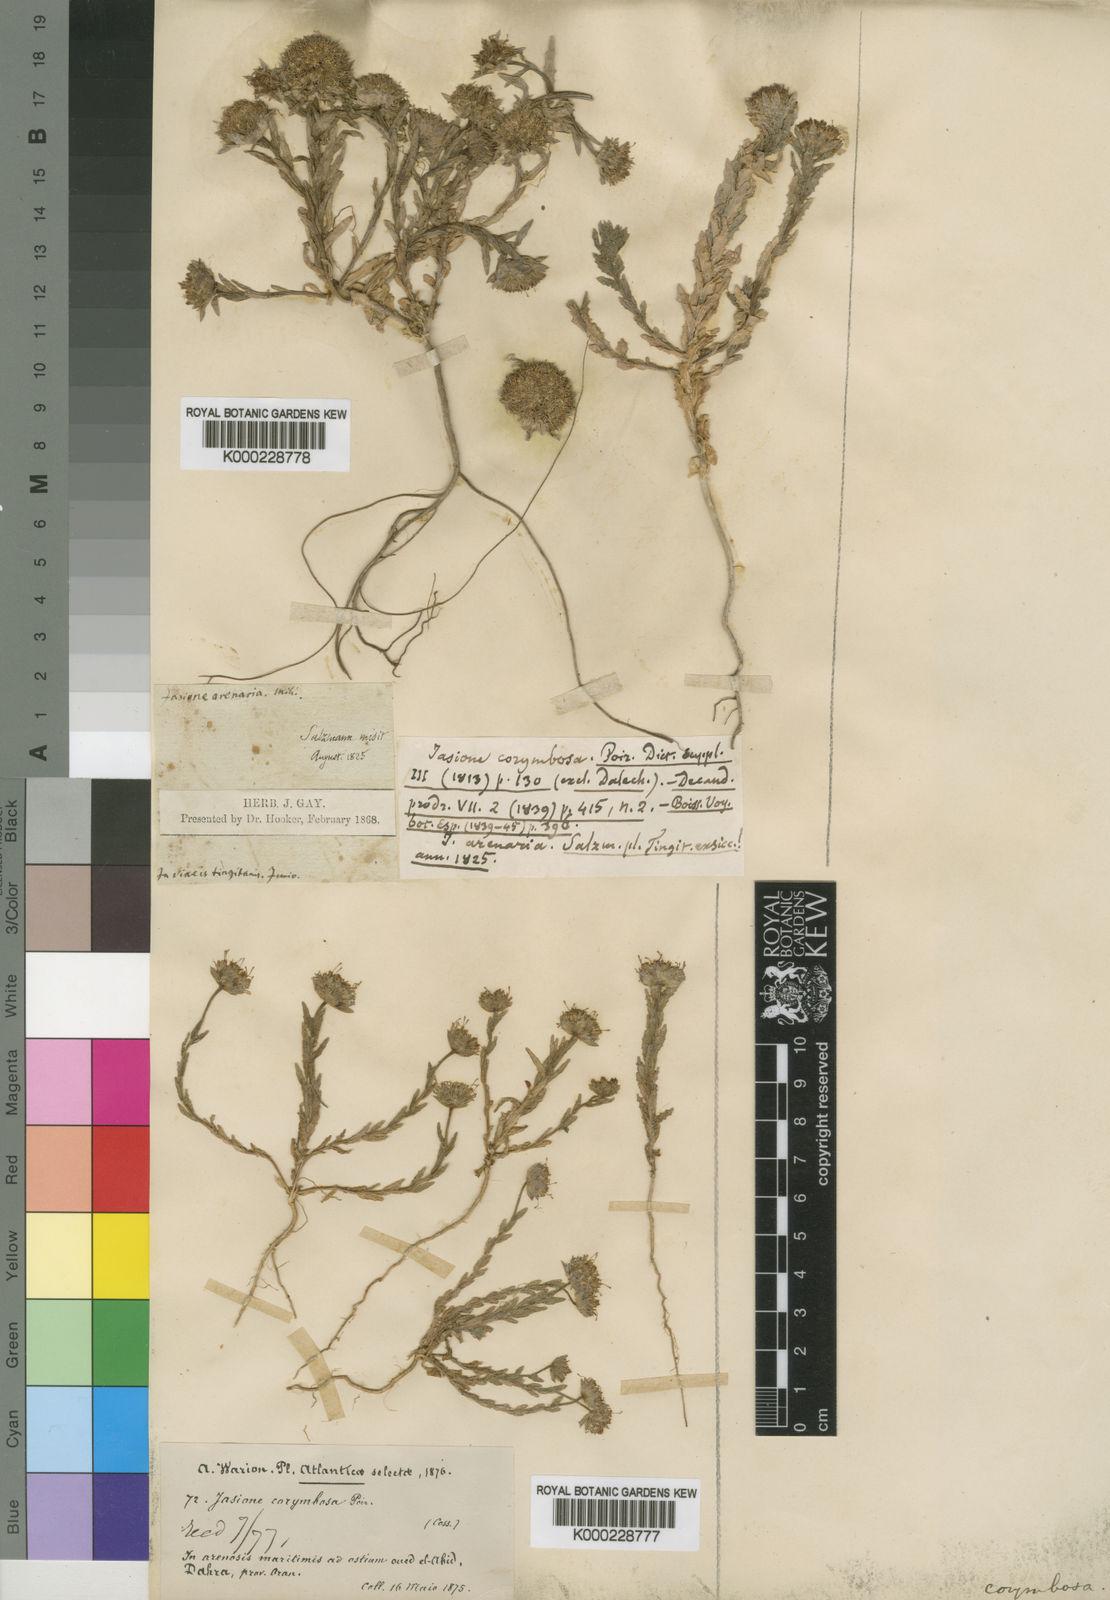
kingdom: Plantae
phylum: Tracheophyta
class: Magnoliopsida
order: Asterales
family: Campanulaceae
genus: Jasione
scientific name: Jasione
